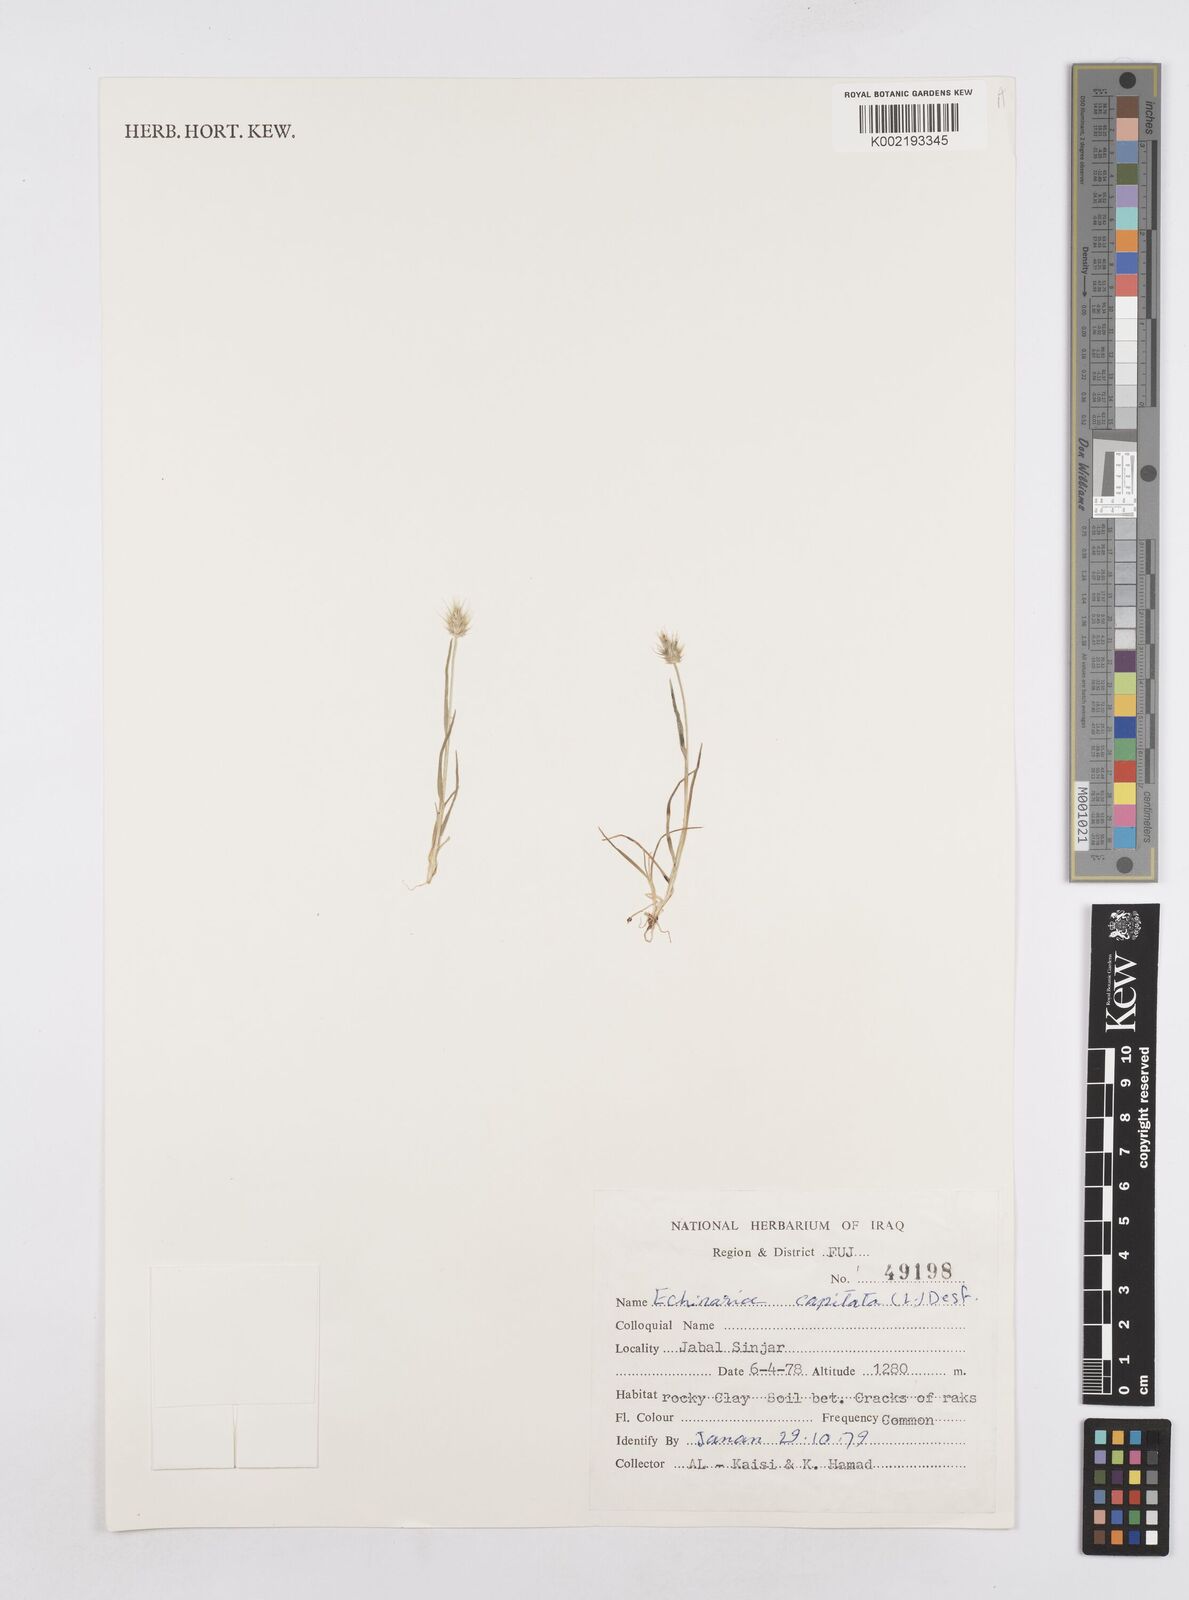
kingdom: Plantae
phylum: Tracheophyta
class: Liliopsida
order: Poales
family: Poaceae
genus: Echinaria
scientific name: Echinaria capitata
